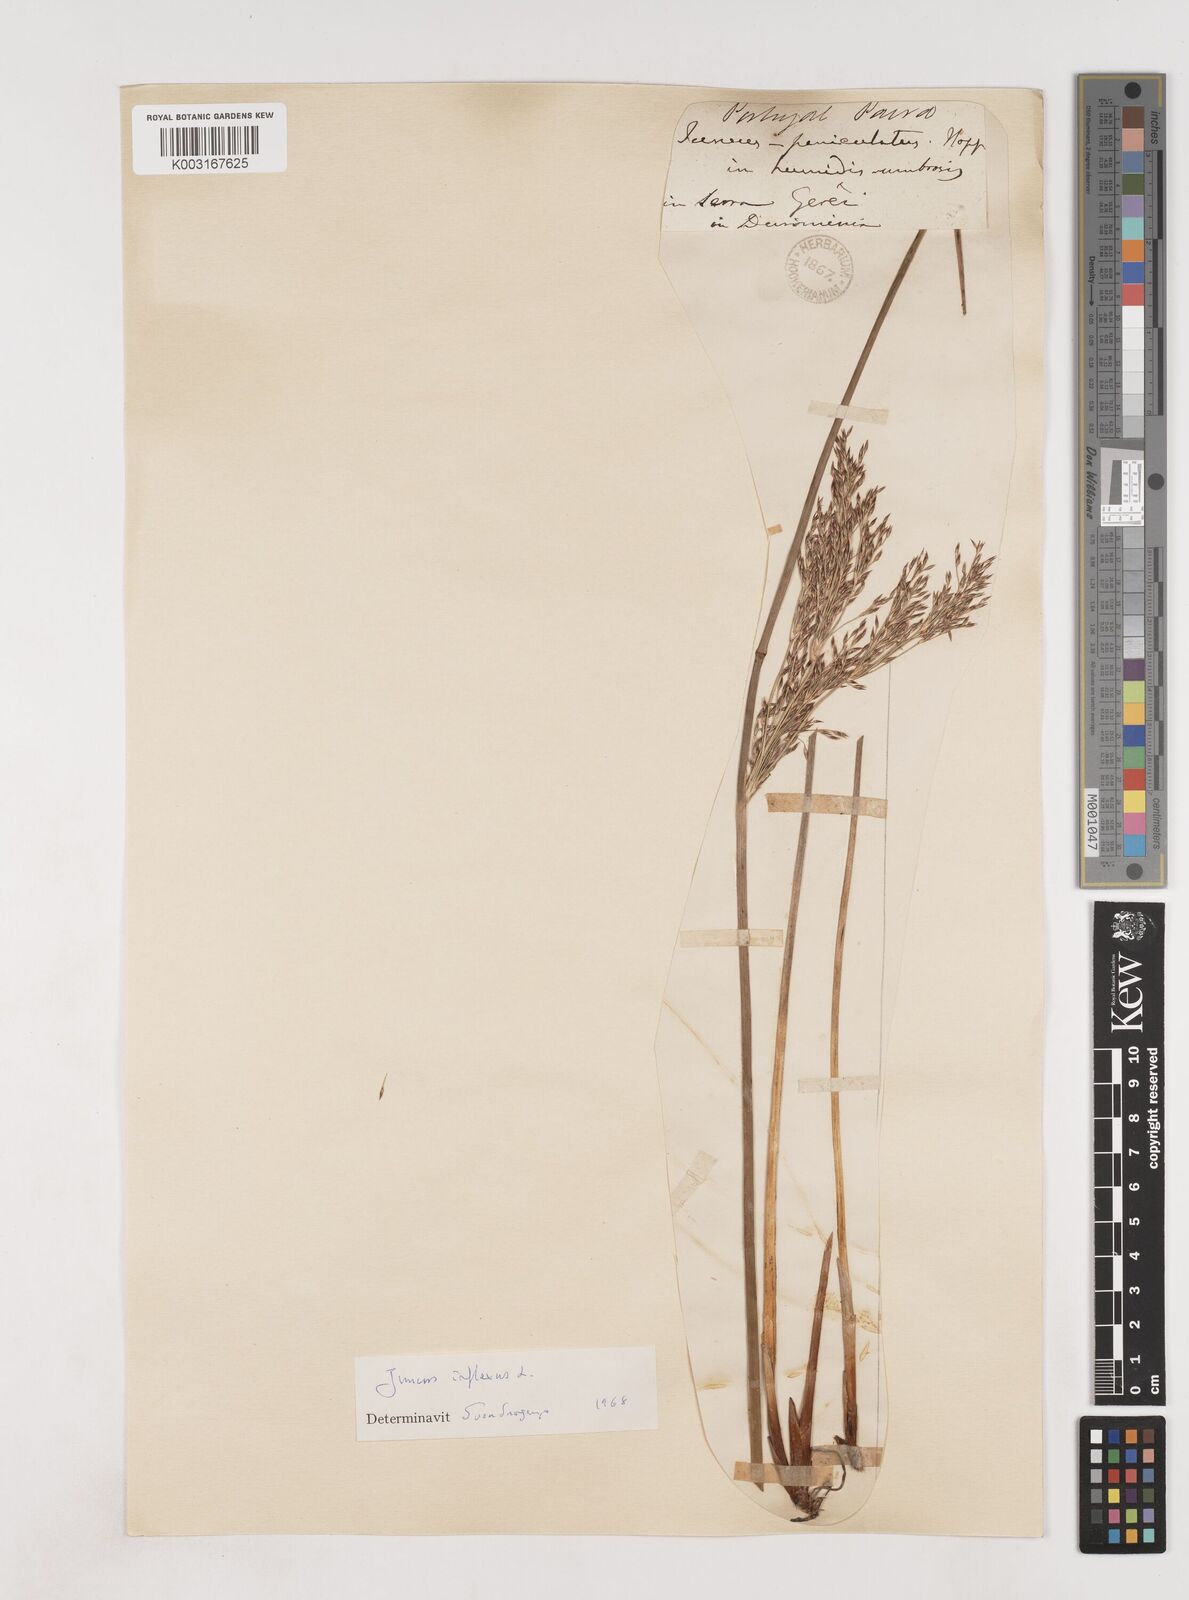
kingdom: Plantae
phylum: Tracheophyta
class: Liliopsida
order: Poales
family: Juncaceae
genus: Juncus
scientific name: Juncus inflexus
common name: Hard rush
